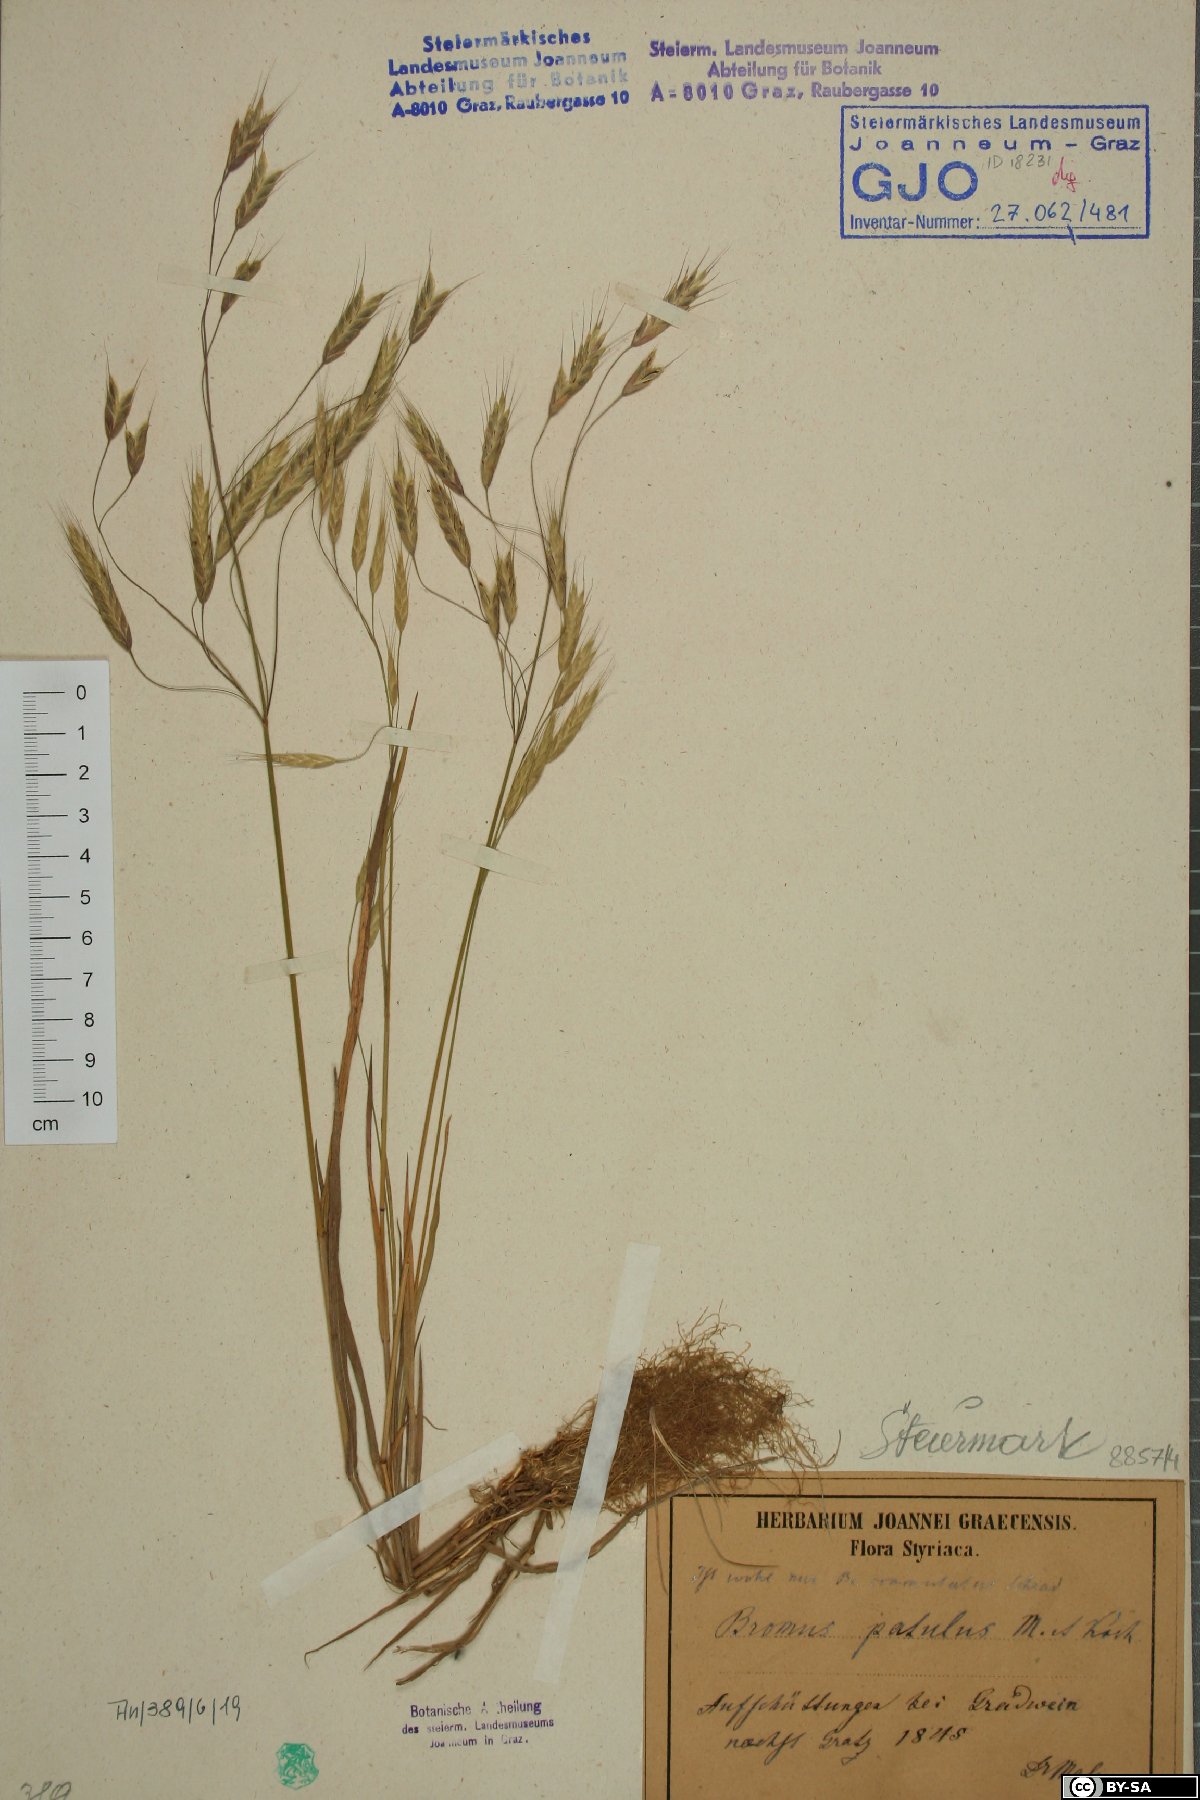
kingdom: Plantae
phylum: Tracheophyta
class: Liliopsida
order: Poales
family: Poaceae
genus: Bromus
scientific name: Bromus commutatus
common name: Meadow brome
